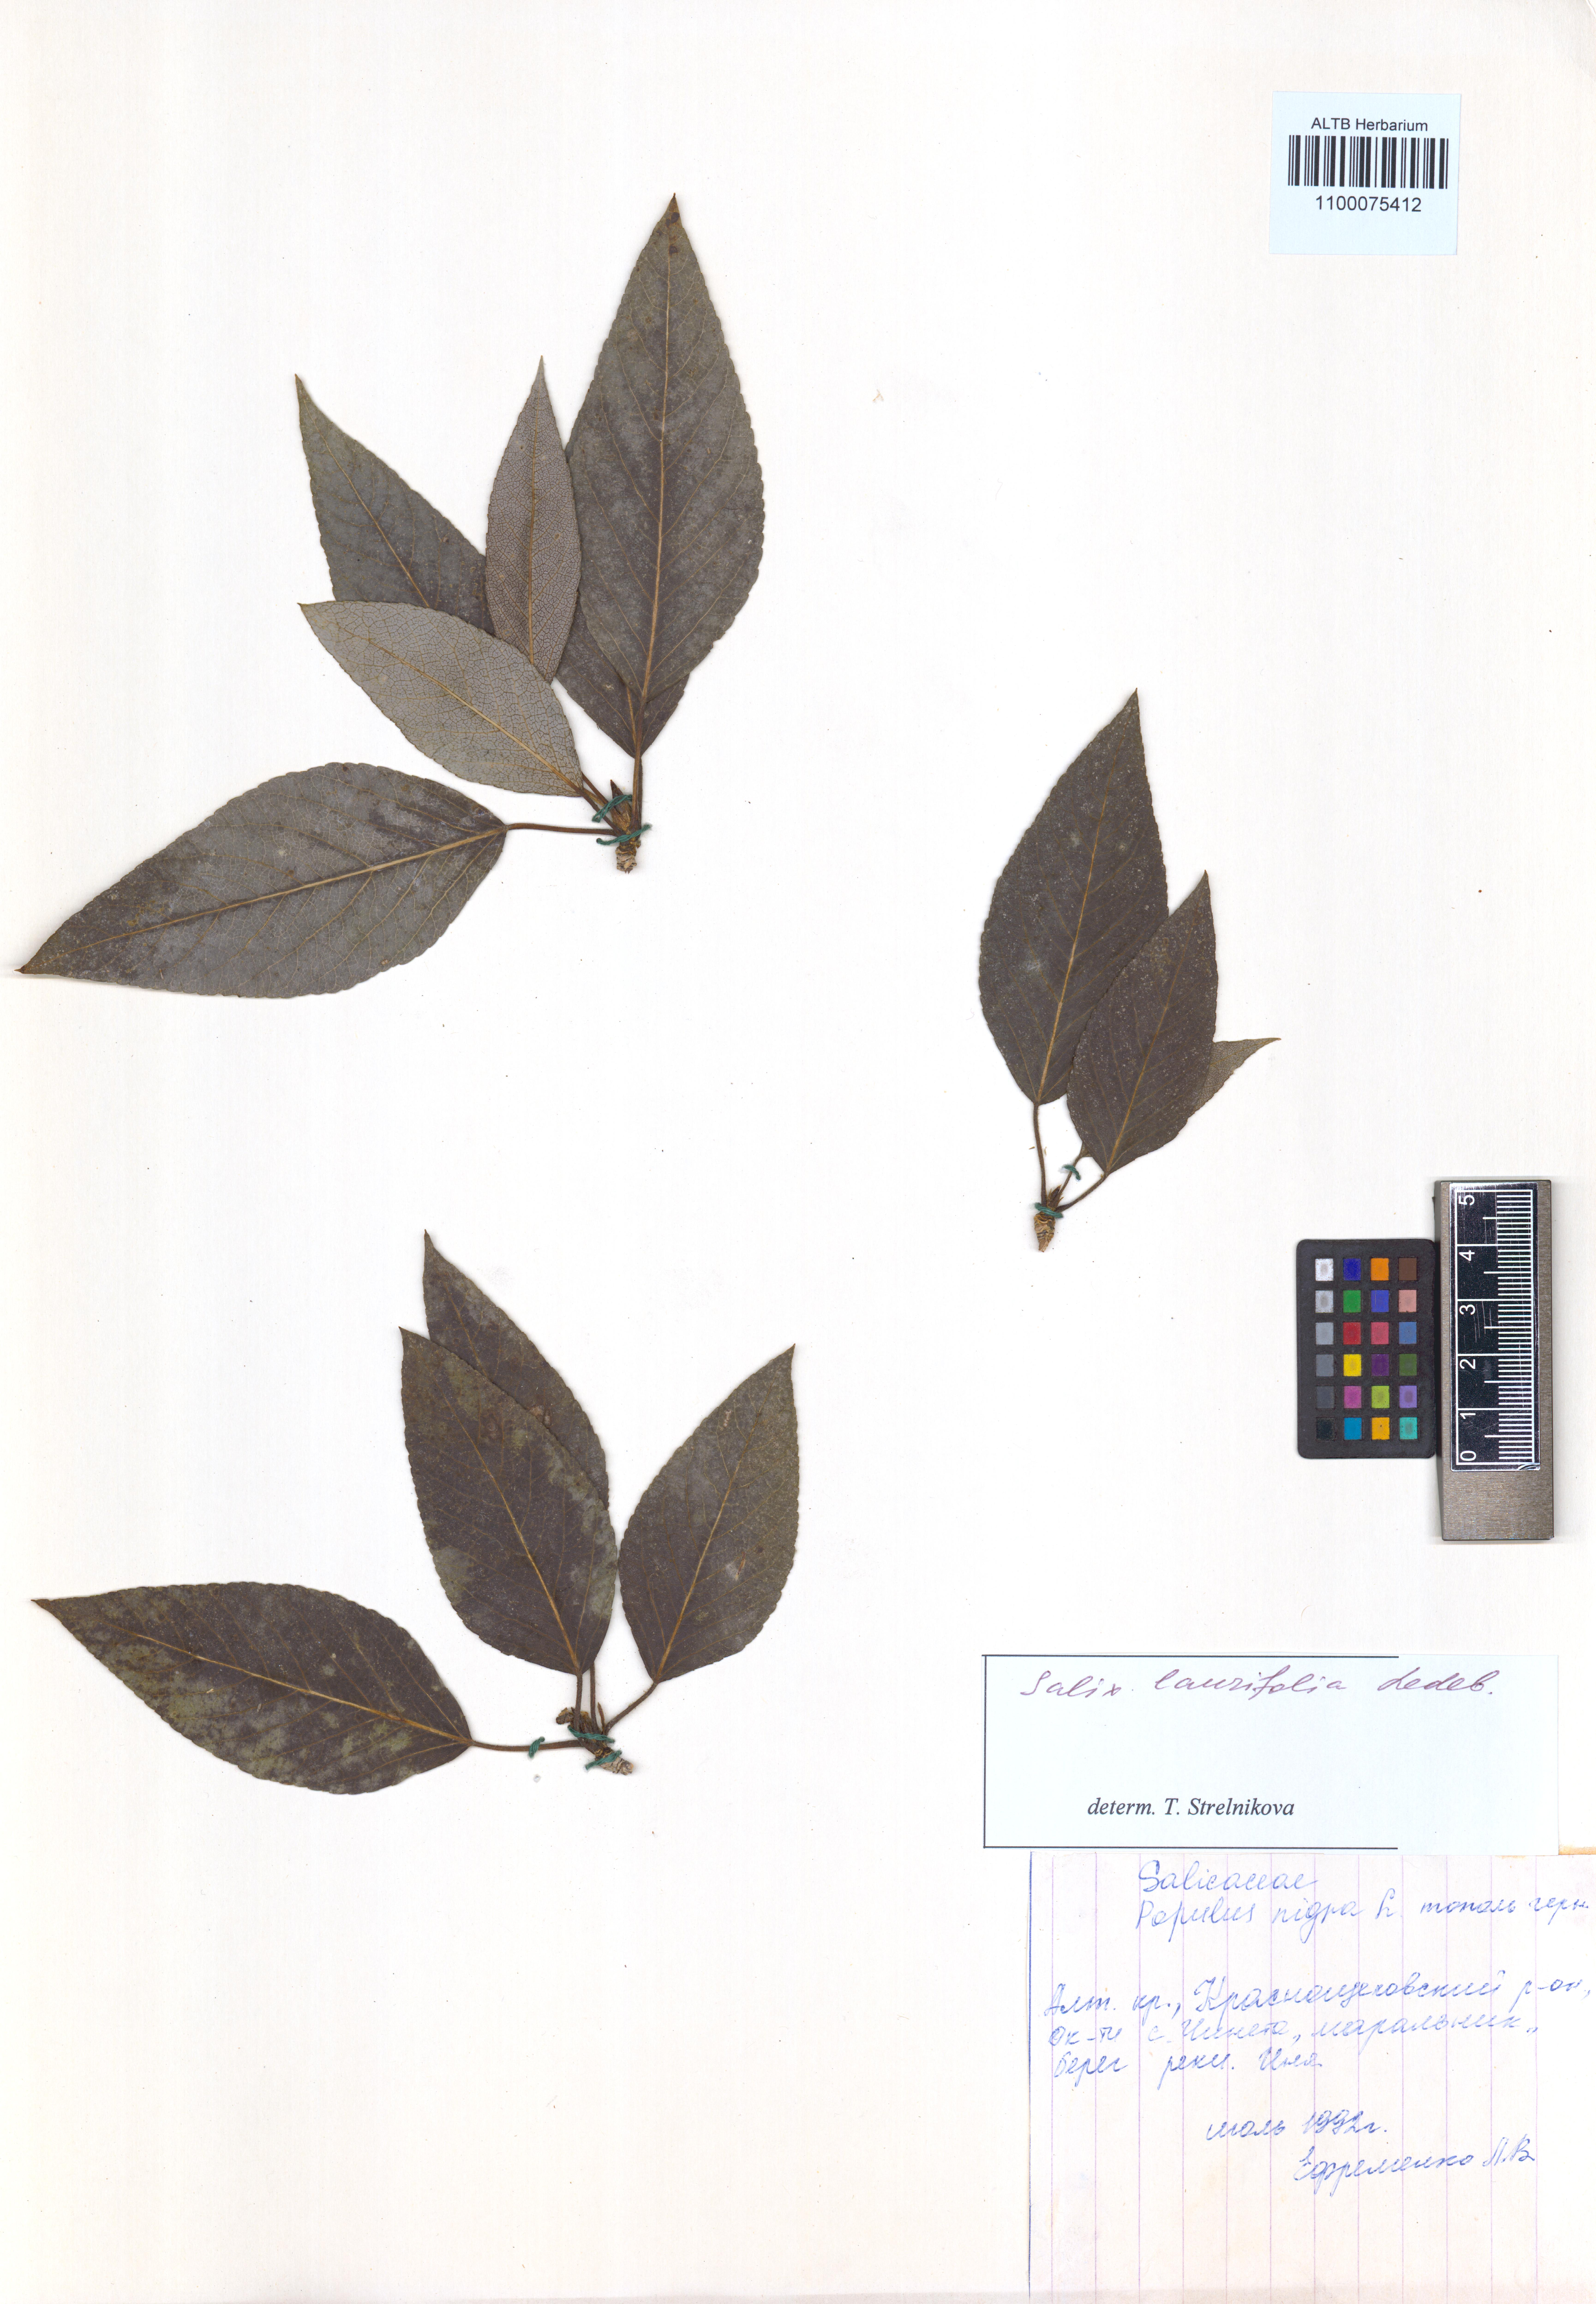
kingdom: Plantae
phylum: Tracheophyta
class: Magnoliopsida
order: Malpighiales
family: Salicaceae
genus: Populus
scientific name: Populus laurifolia
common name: Laurel-leaf poplar
